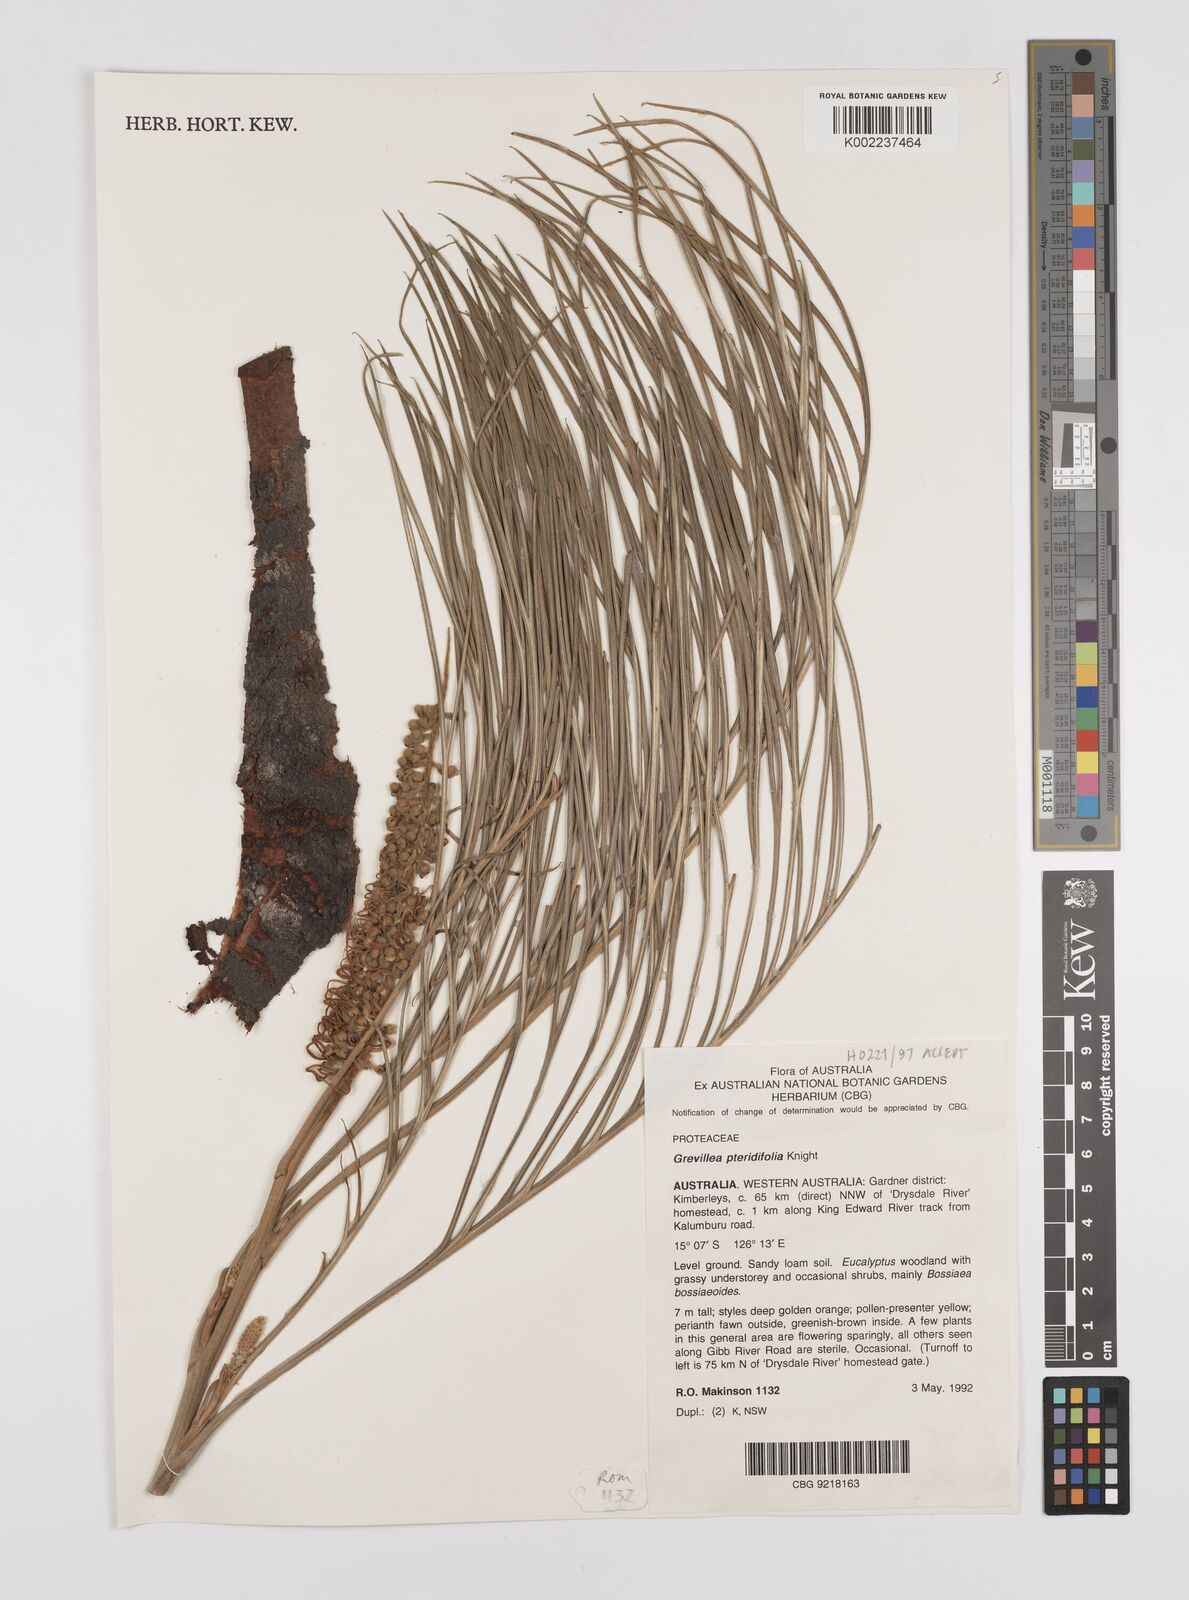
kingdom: Plantae
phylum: Tracheophyta
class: Magnoliopsida
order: Proteales
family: Proteaceae
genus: Grevillea
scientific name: Grevillea pteridifolia
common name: Golden grevillea
